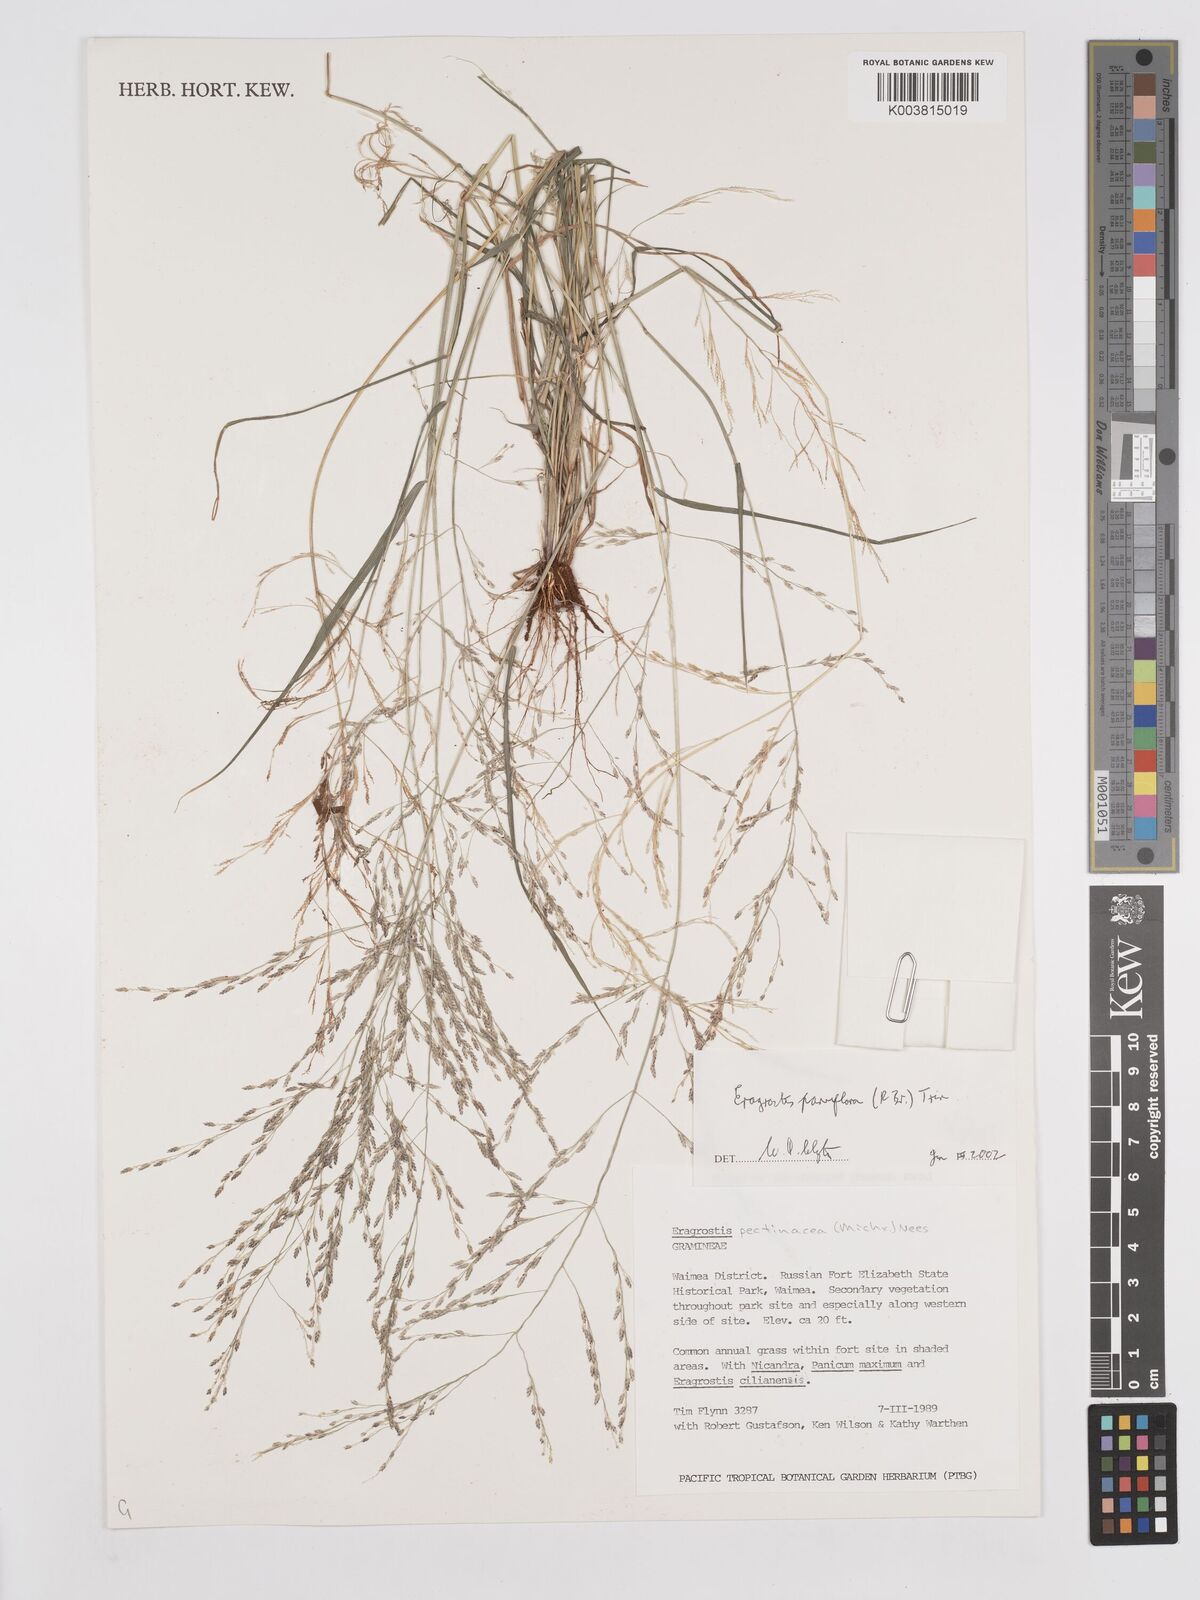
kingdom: Plantae
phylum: Tracheophyta
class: Liliopsida
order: Poales
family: Poaceae
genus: Eragrostis
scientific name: Eragrostis parviflora
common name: Weeping love-grass
